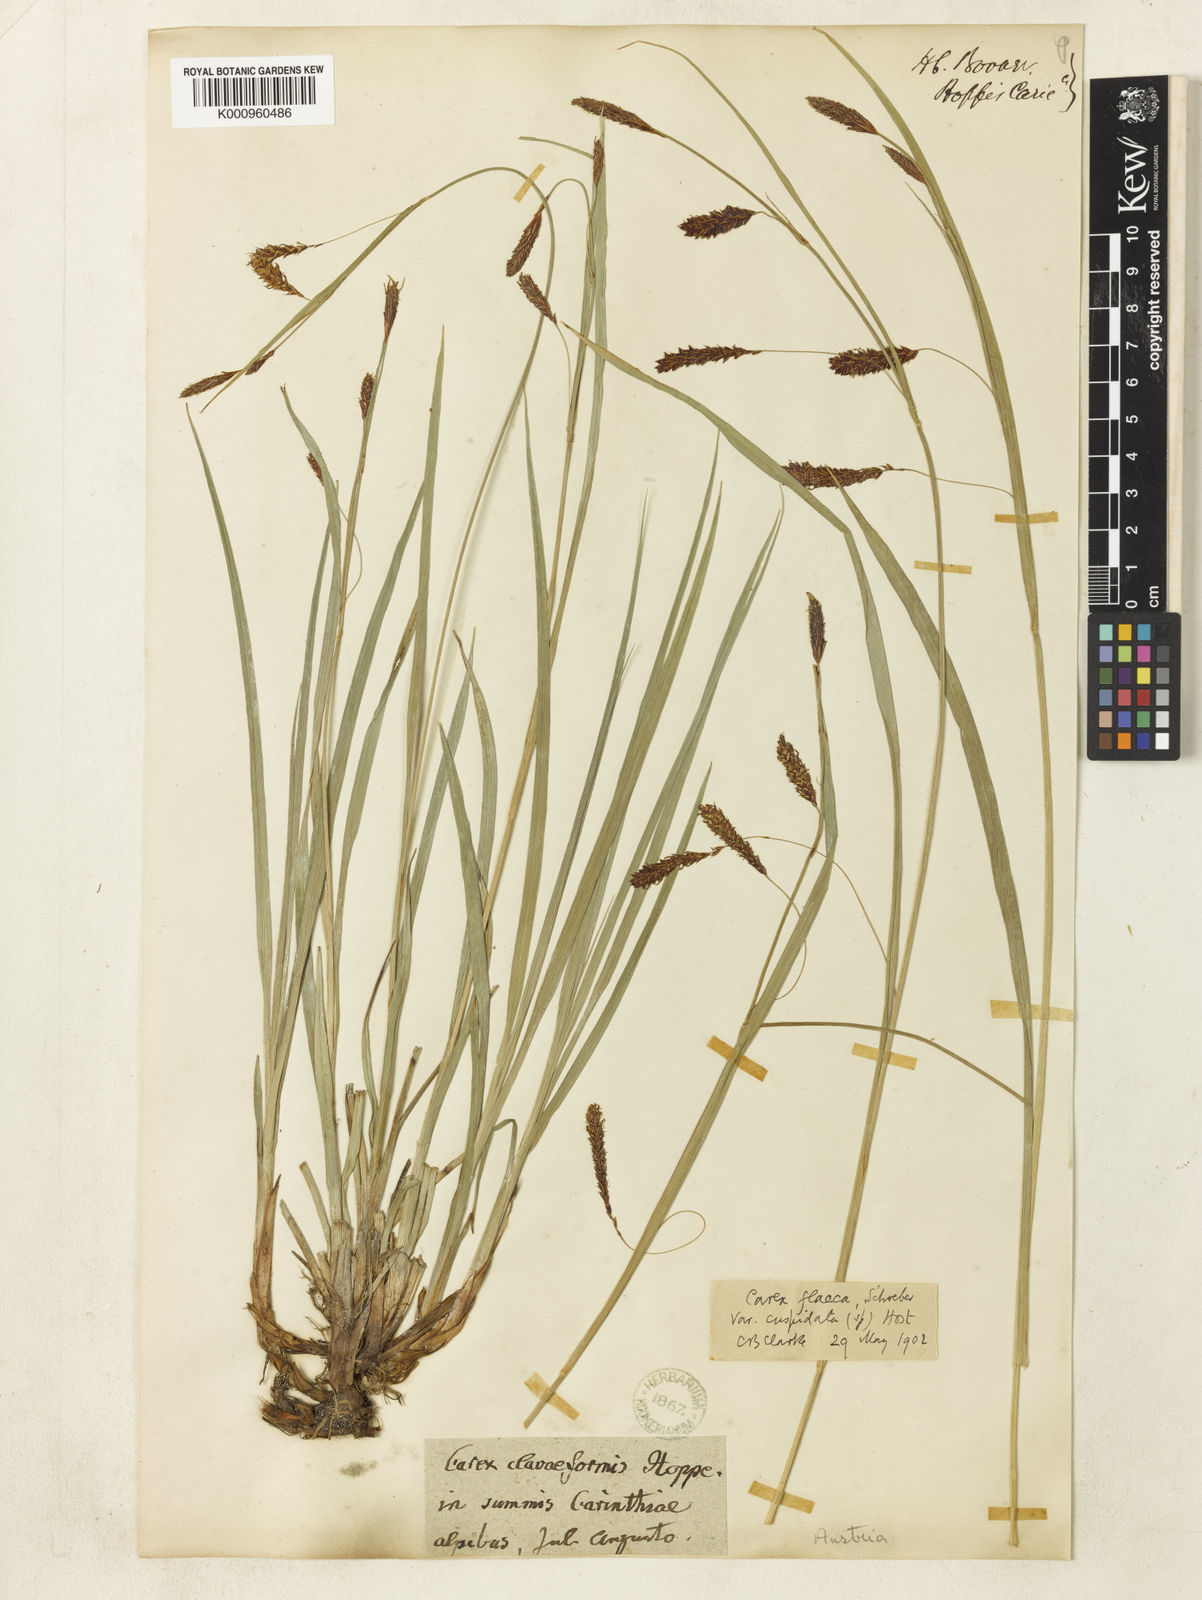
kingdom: Plantae
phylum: Tracheophyta
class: Liliopsida
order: Poales
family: Cyperaceae
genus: Carex
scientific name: Carex flacca
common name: Glaucous sedge
